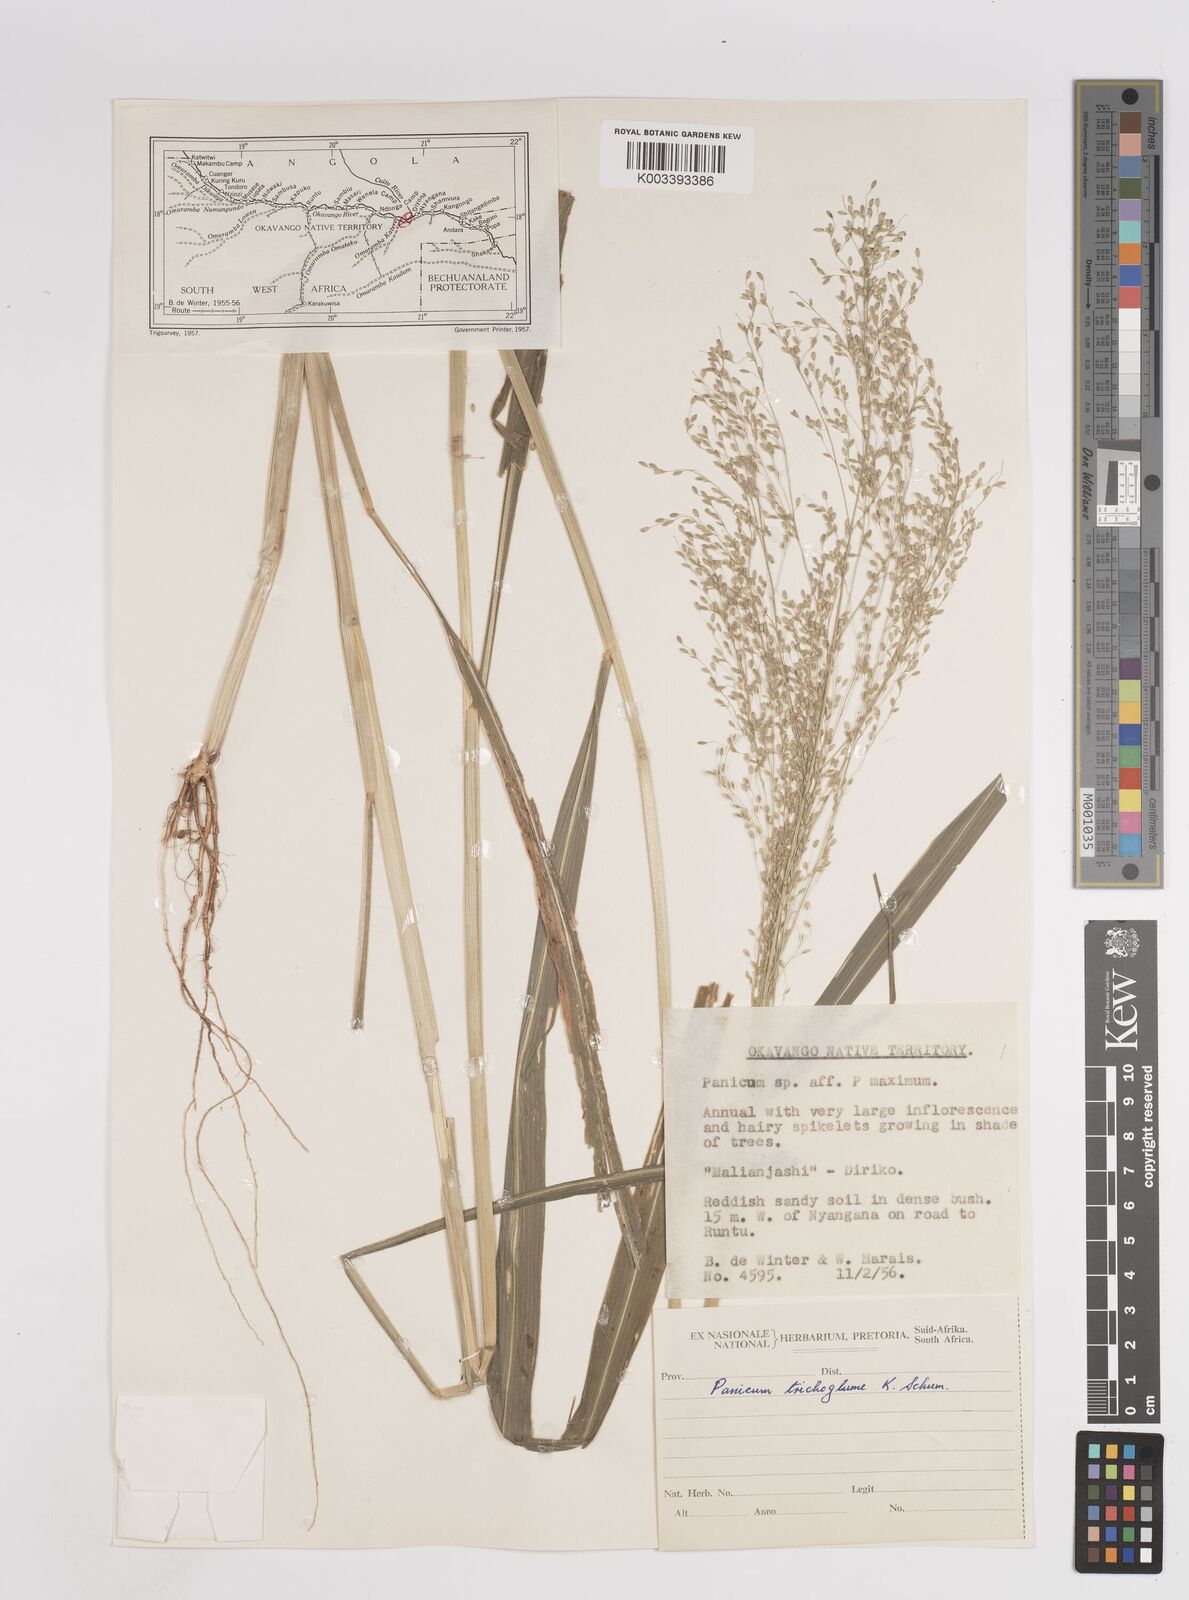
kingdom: Plantae
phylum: Tracheophyta
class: Liliopsida
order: Poales
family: Poaceae
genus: Megathyrsus
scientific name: Megathyrsus maximus
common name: Guineagrass
